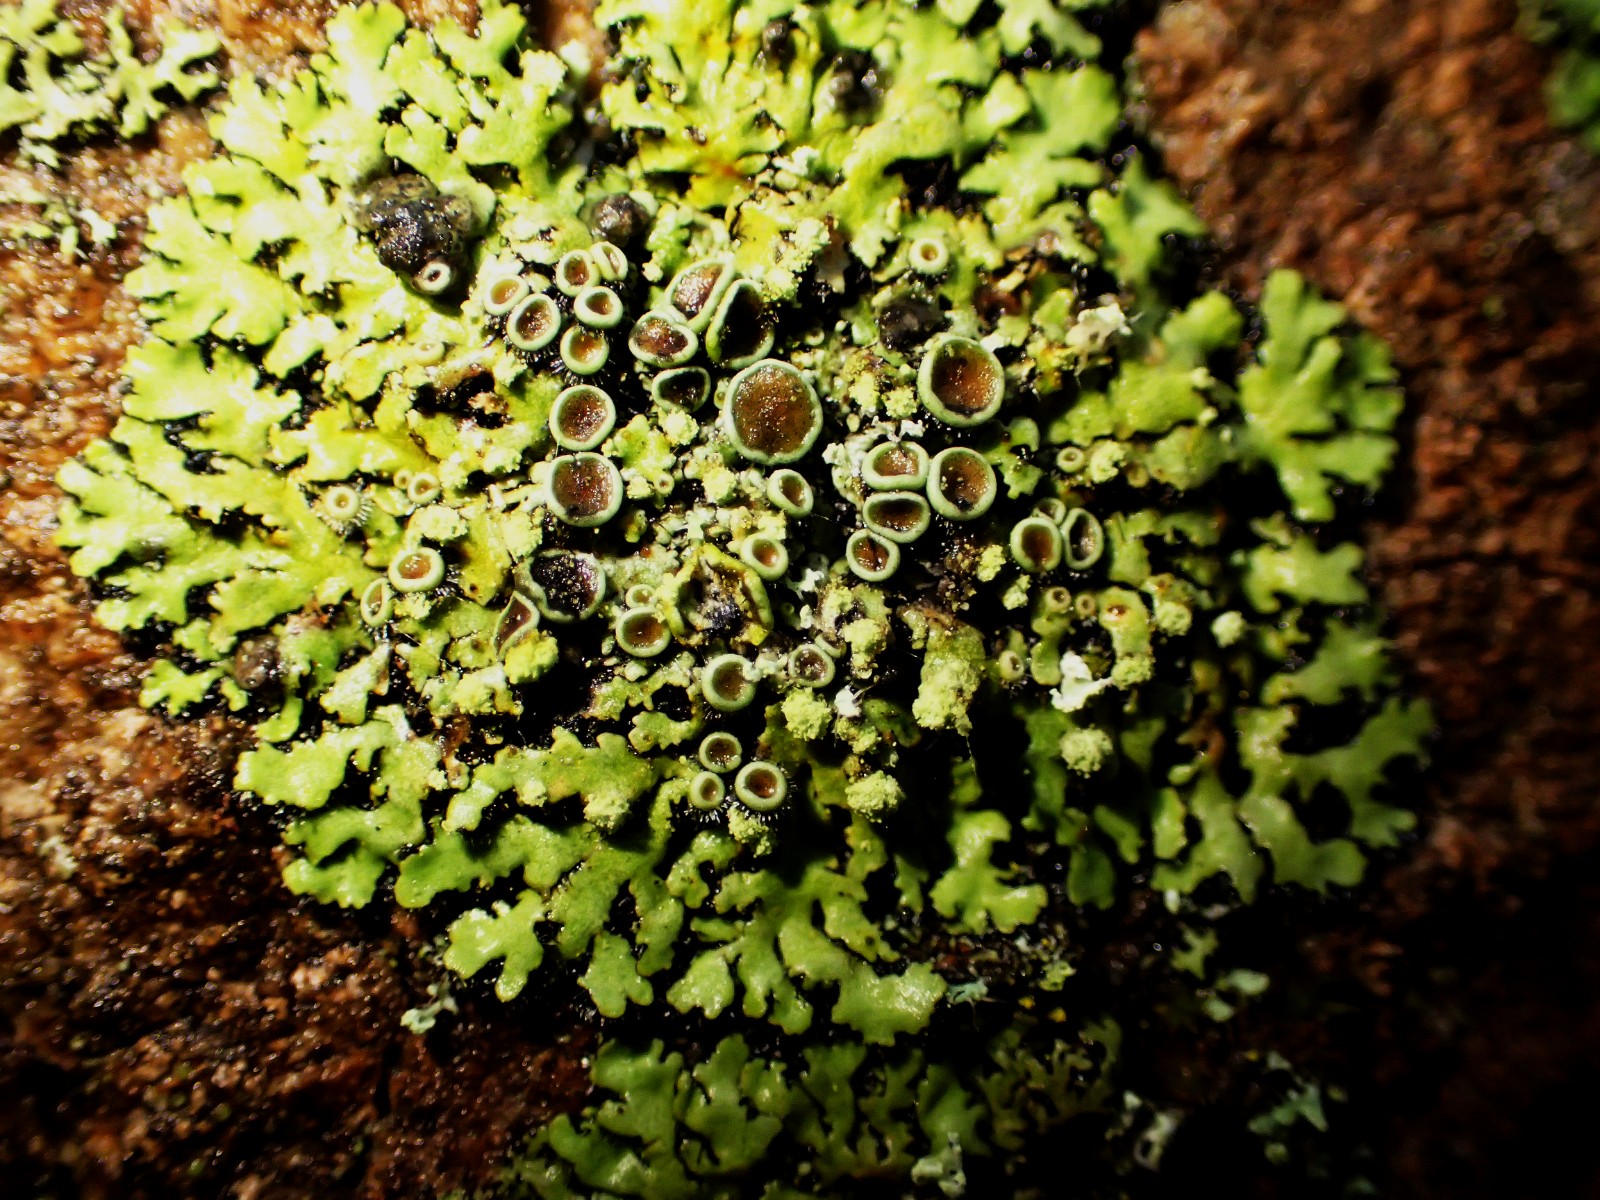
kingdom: Fungi
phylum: Ascomycota
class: Lecanoromycetes
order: Caliciales
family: Physciaceae
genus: Physcia
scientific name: Physcia tenella
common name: spæd rosetlav
